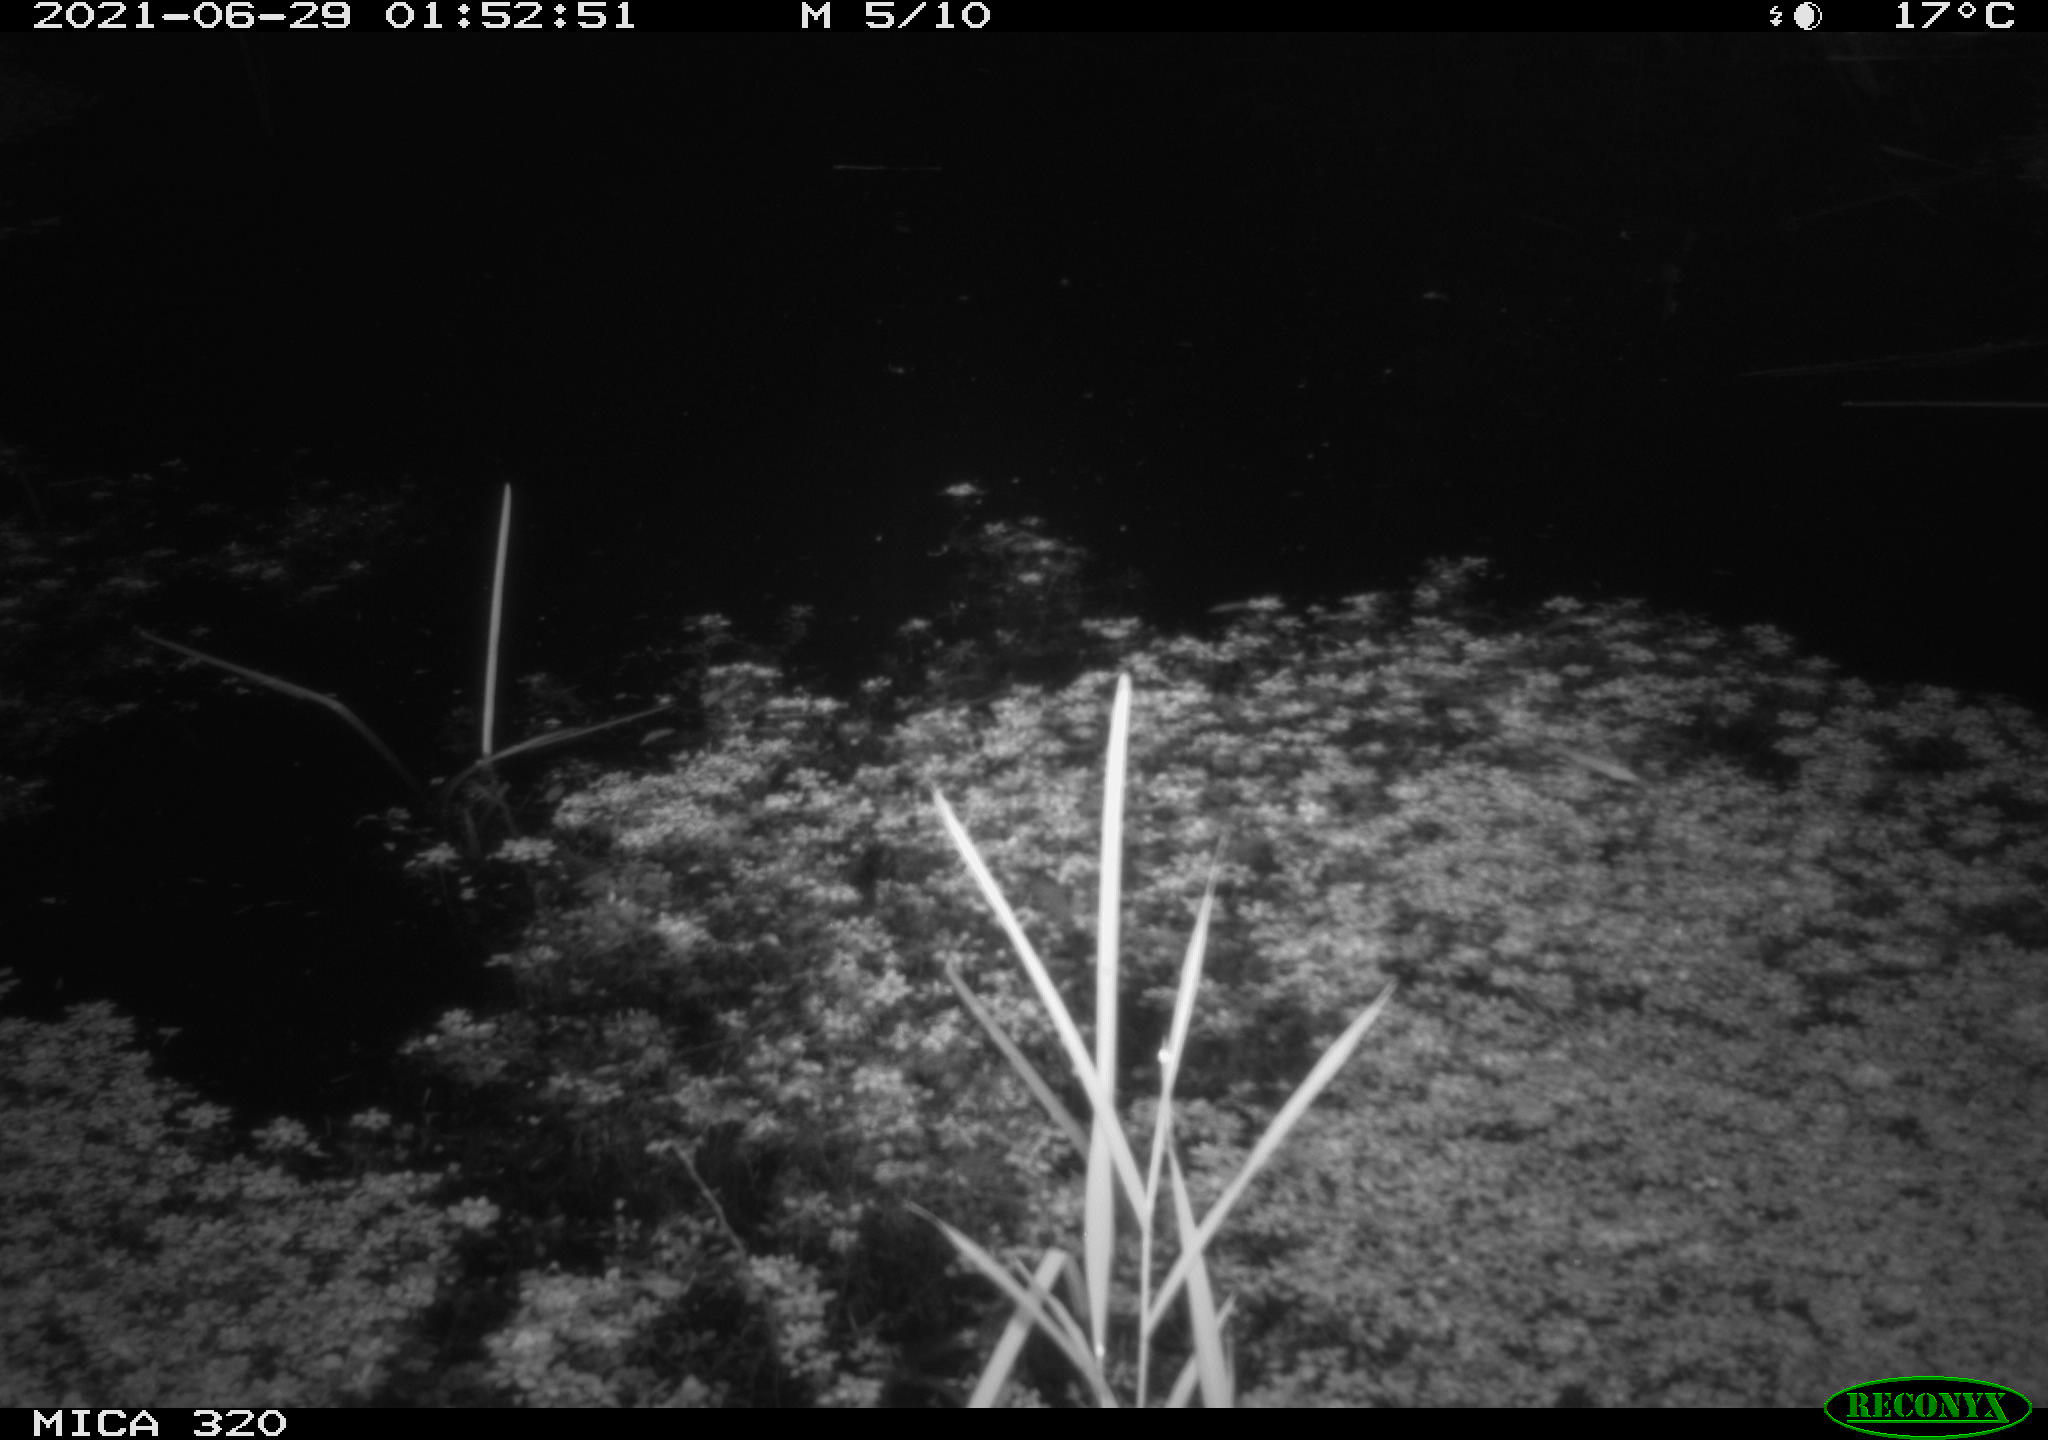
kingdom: Animalia
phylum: Chordata
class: Mammalia
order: Rodentia
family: Muridae
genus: Rattus
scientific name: Rattus norvegicus
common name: Brown rat
